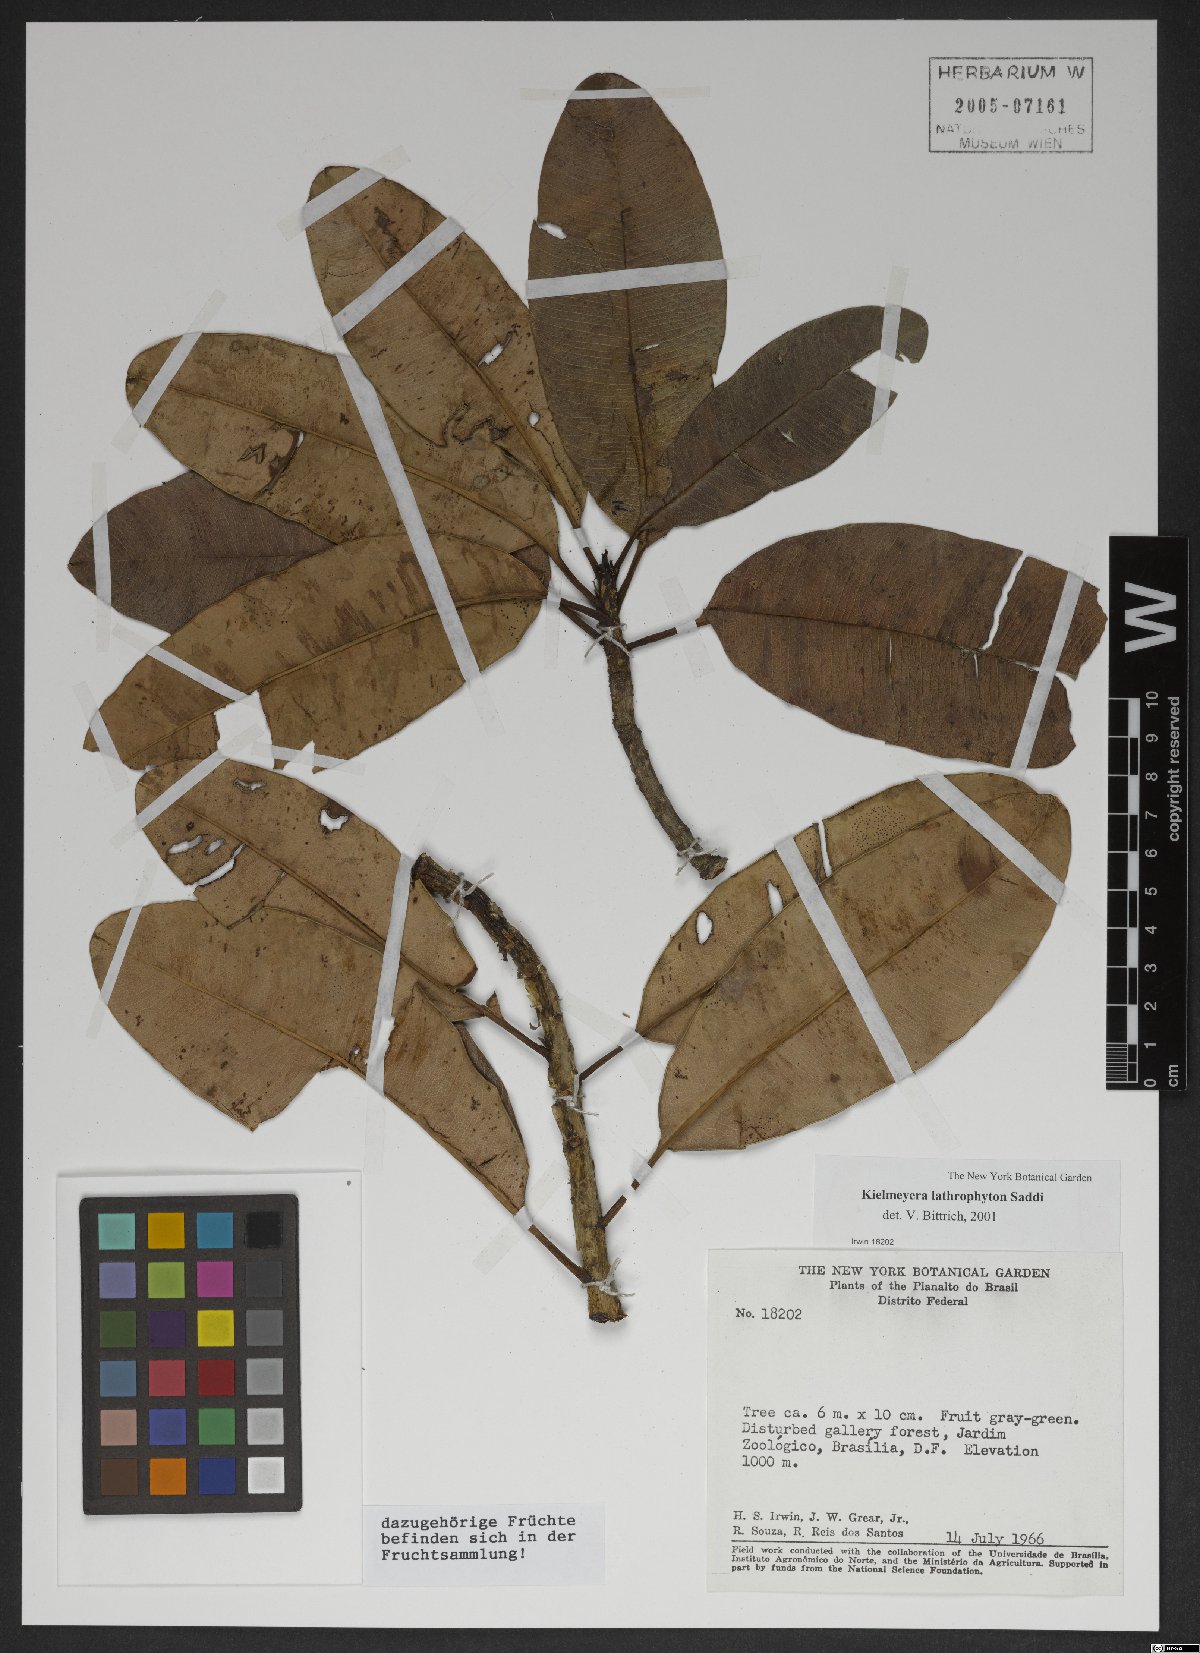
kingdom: Plantae
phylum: Tracheophyta
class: Magnoliopsida
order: Malpighiales
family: Calophyllaceae
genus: Kielmeyera
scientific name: Kielmeyera lathrophyton
